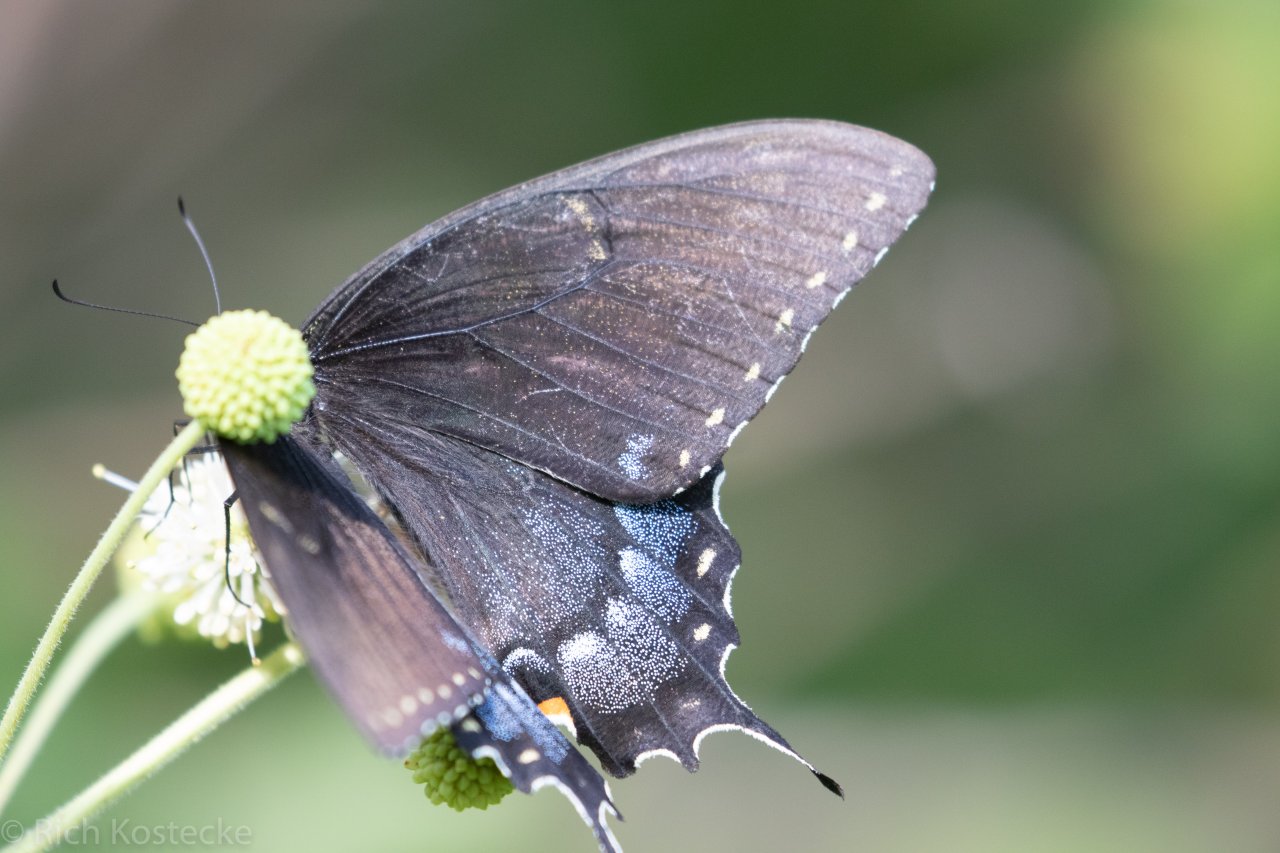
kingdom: Animalia
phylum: Arthropoda
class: Insecta
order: Lepidoptera
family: Papilionidae
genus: Pterourus
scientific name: Pterourus glaucus
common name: Eastern Tiger Swallowtail
